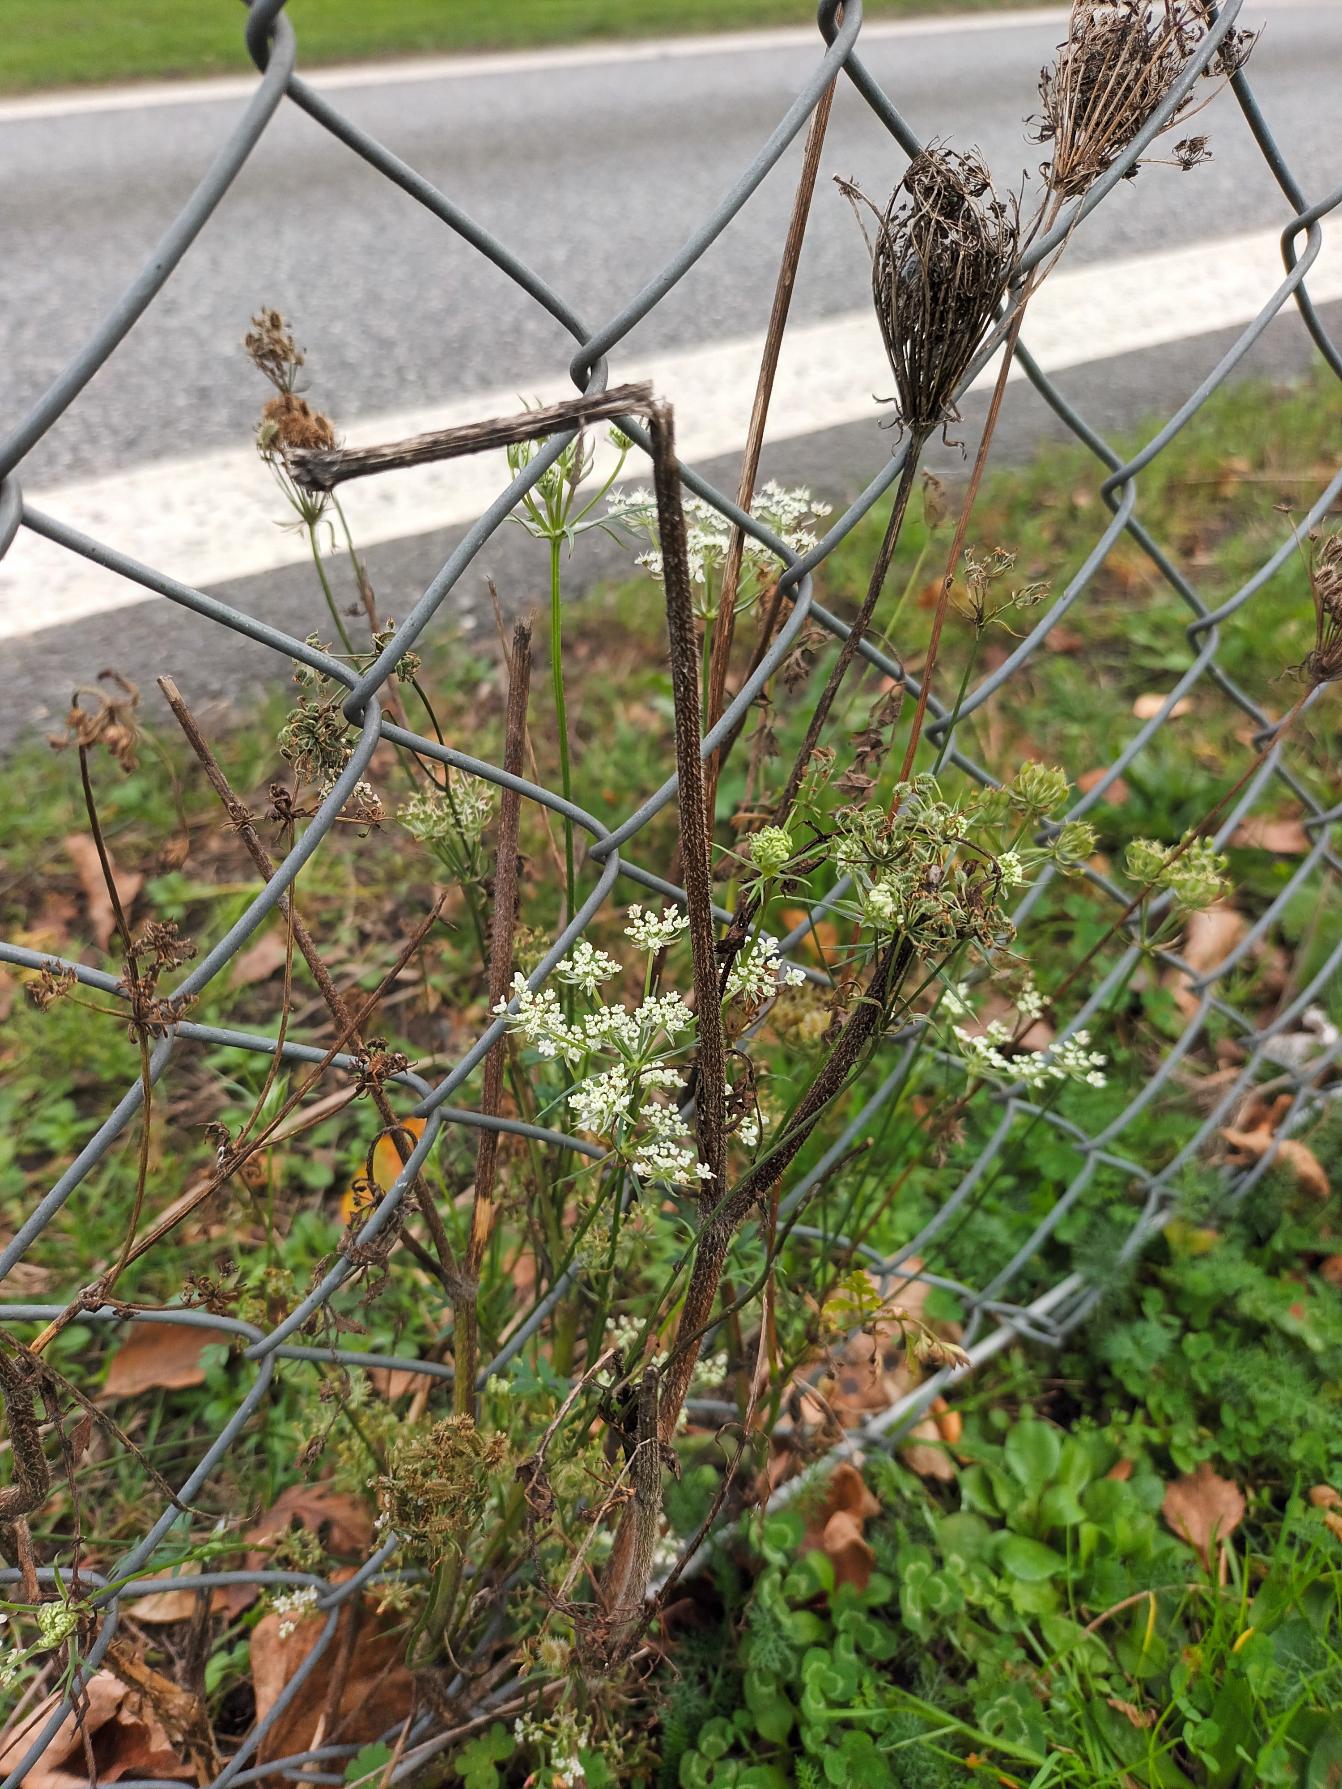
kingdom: Plantae
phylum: Tracheophyta
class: Magnoliopsida
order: Apiales
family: Apiaceae
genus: Daucus
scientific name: Daucus carota
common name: Gulerod
